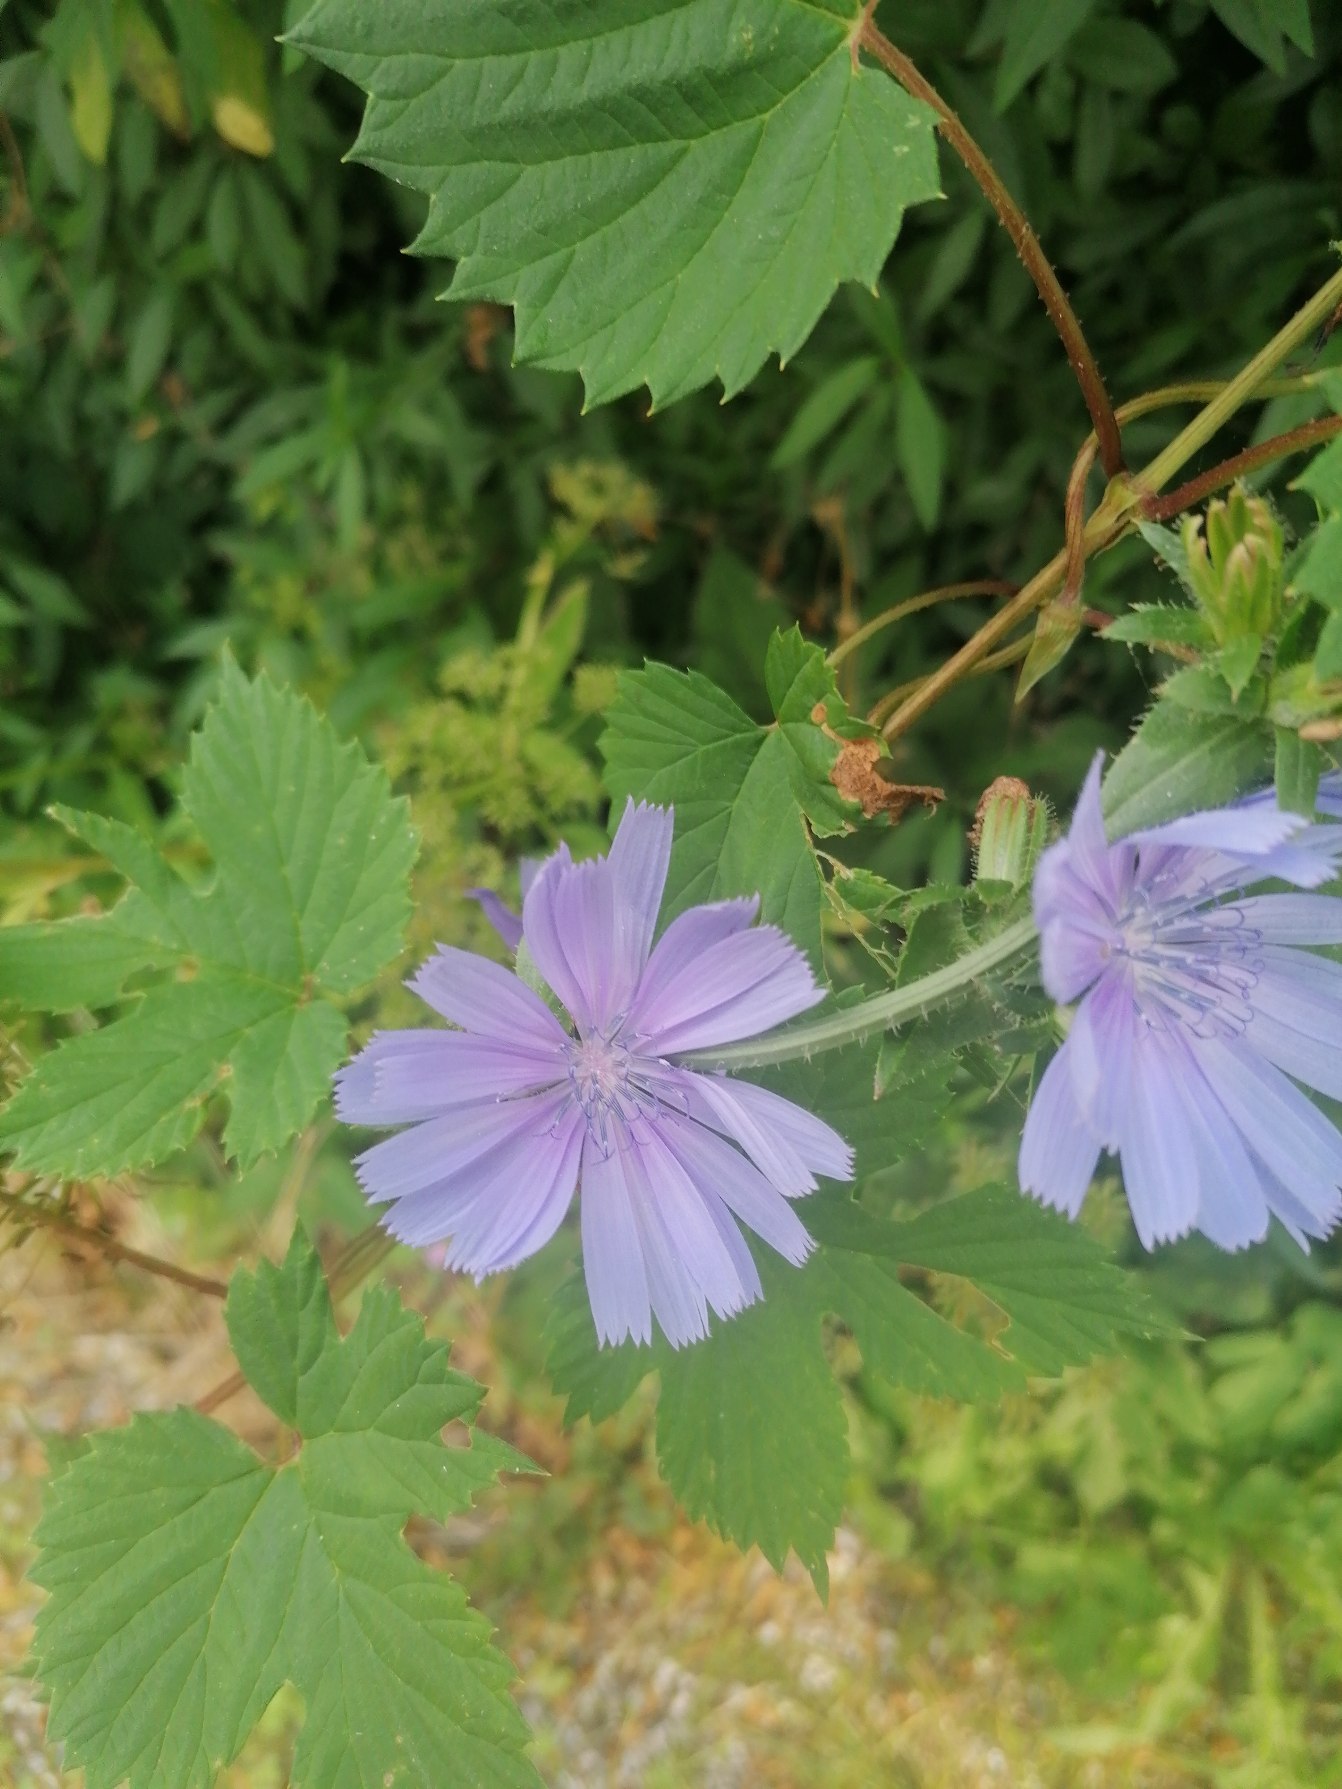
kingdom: Plantae
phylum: Tracheophyta
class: Magnoliopsida
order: Asterales
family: Asteraceae
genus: Cichorium
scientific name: Cichorium intybus
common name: Cikorie
